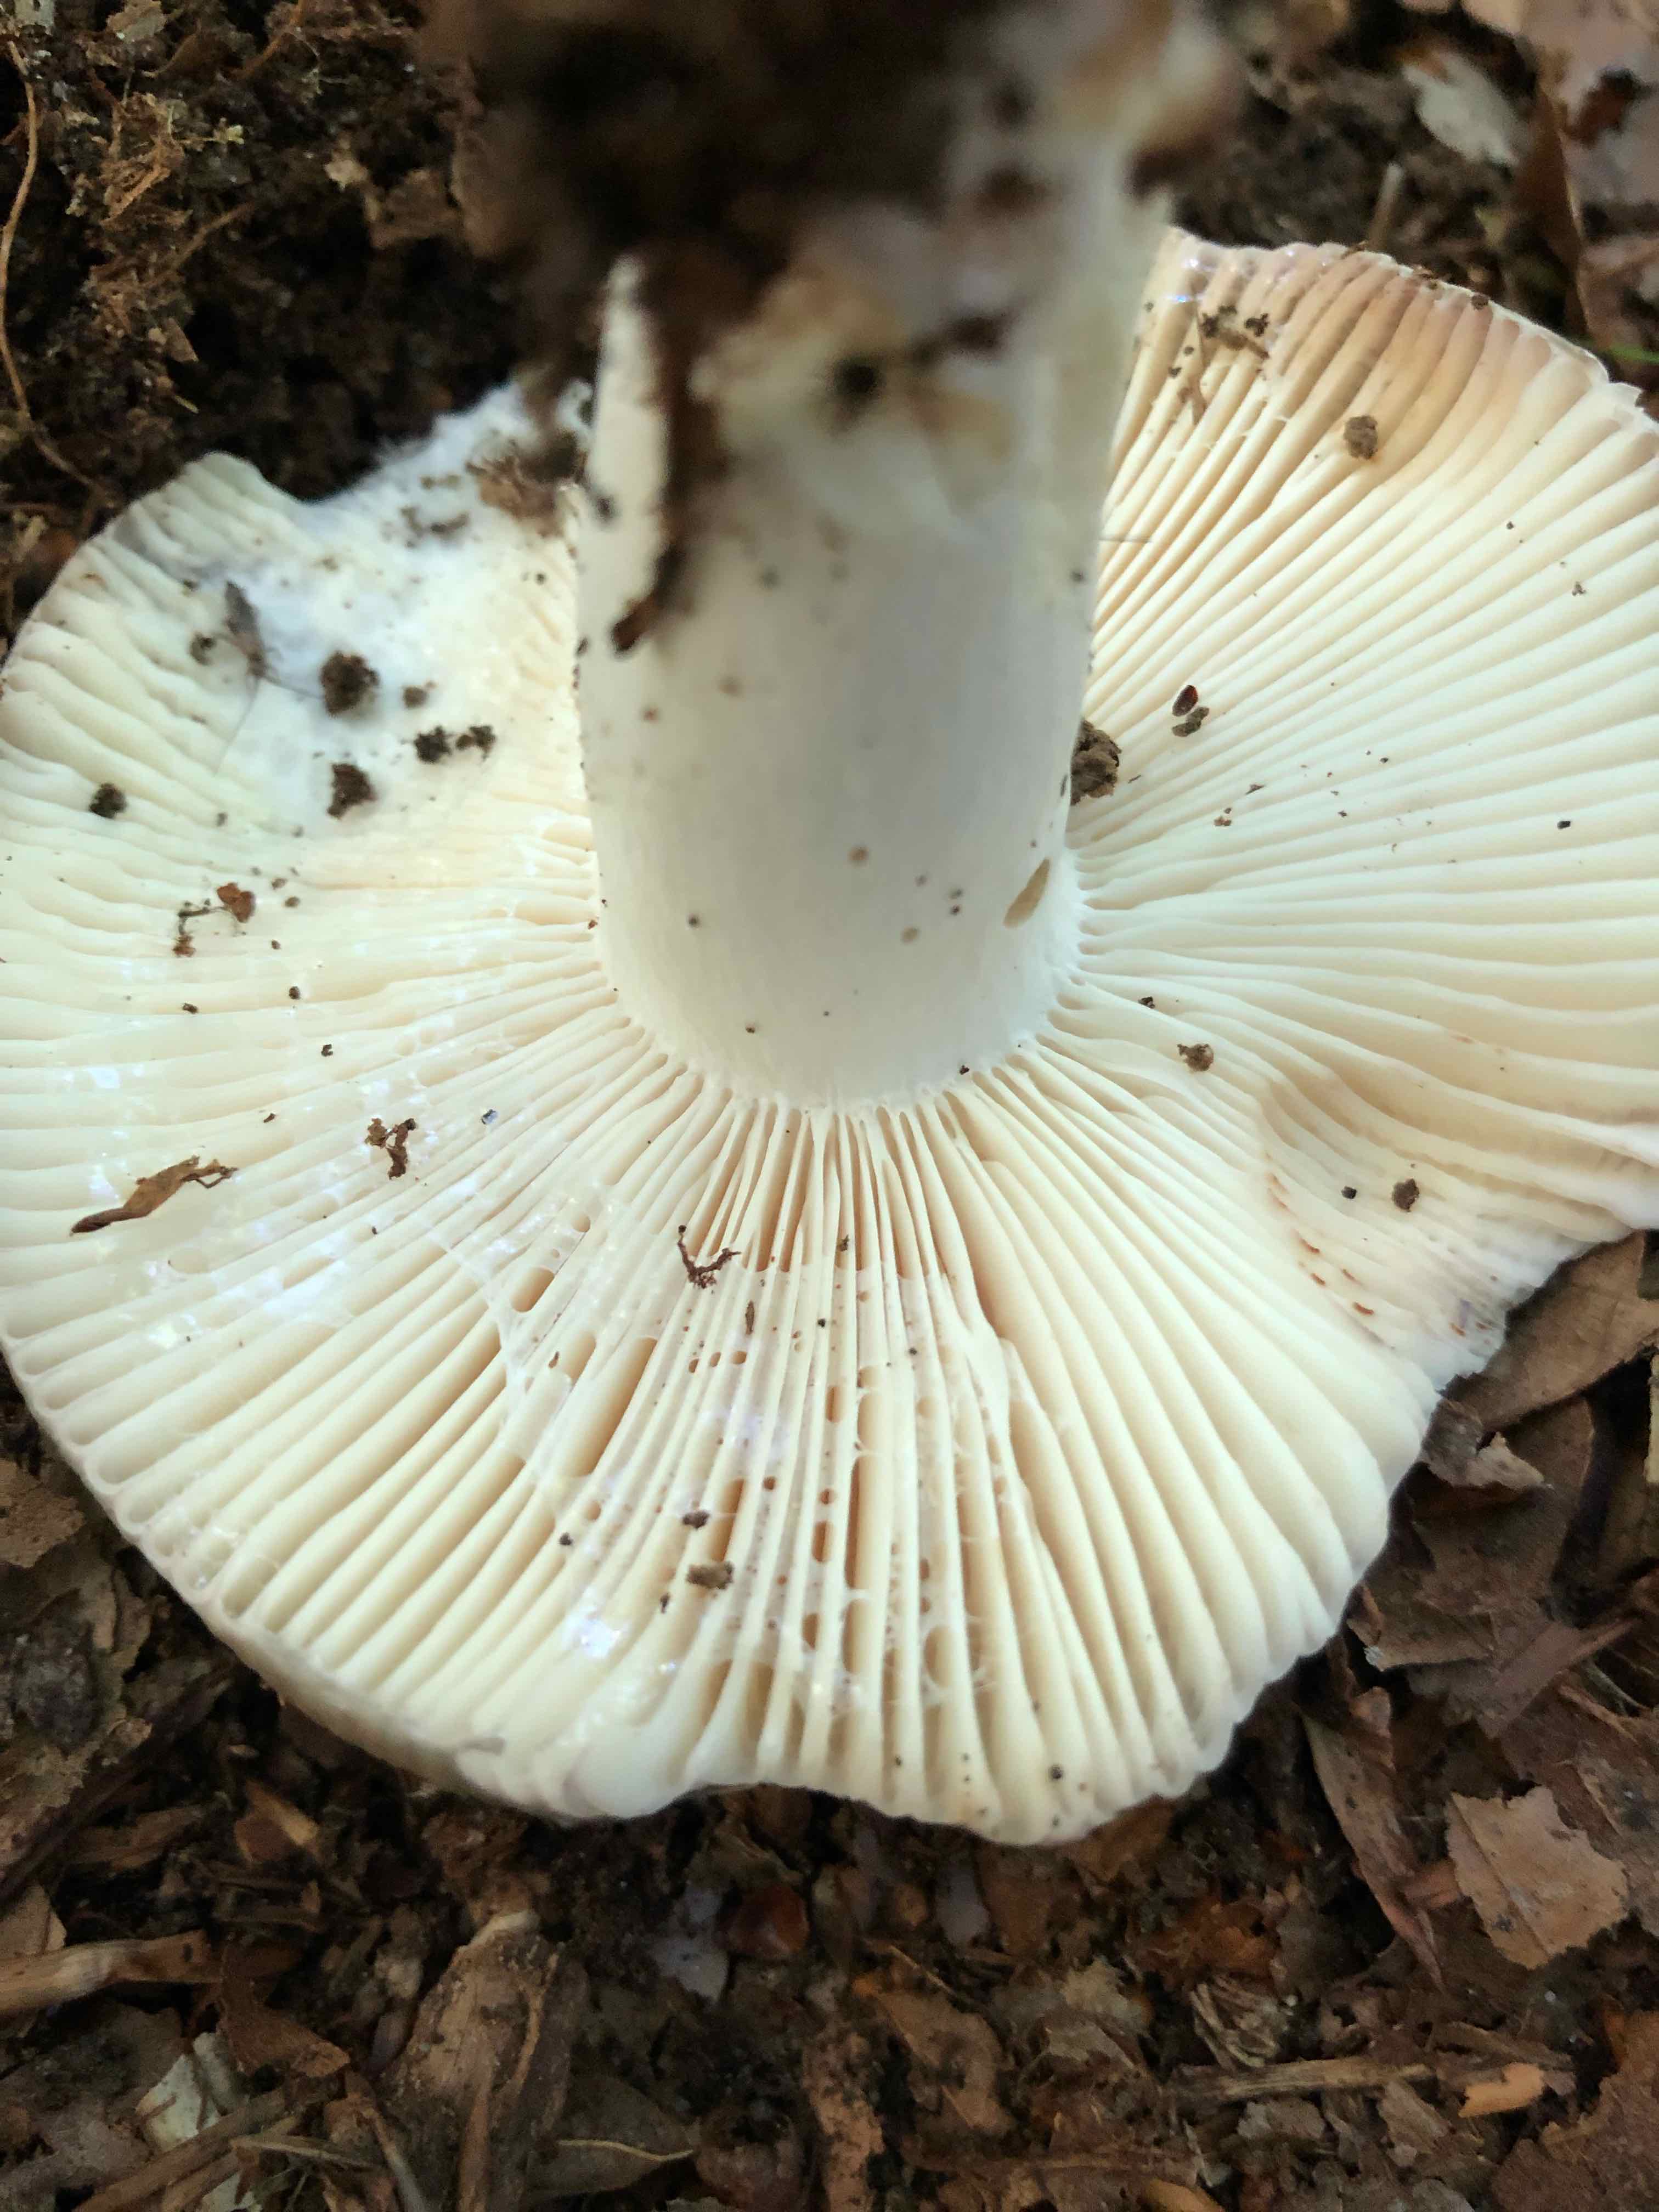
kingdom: Fungi
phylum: Basidiomycota
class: Agaricomycetes
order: Russulales
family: Russulaceae
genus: Russula
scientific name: Russula
